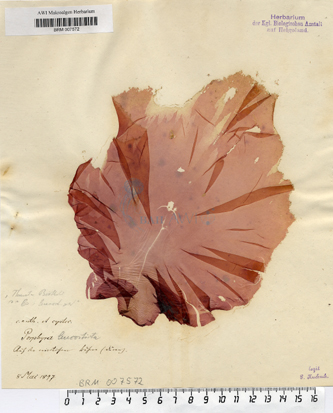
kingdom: Plantae
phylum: Rhodophyta
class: Bangiophyceae
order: Bangiales
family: Bangiaceae
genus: Neopyropia
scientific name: Neopyropia spec
